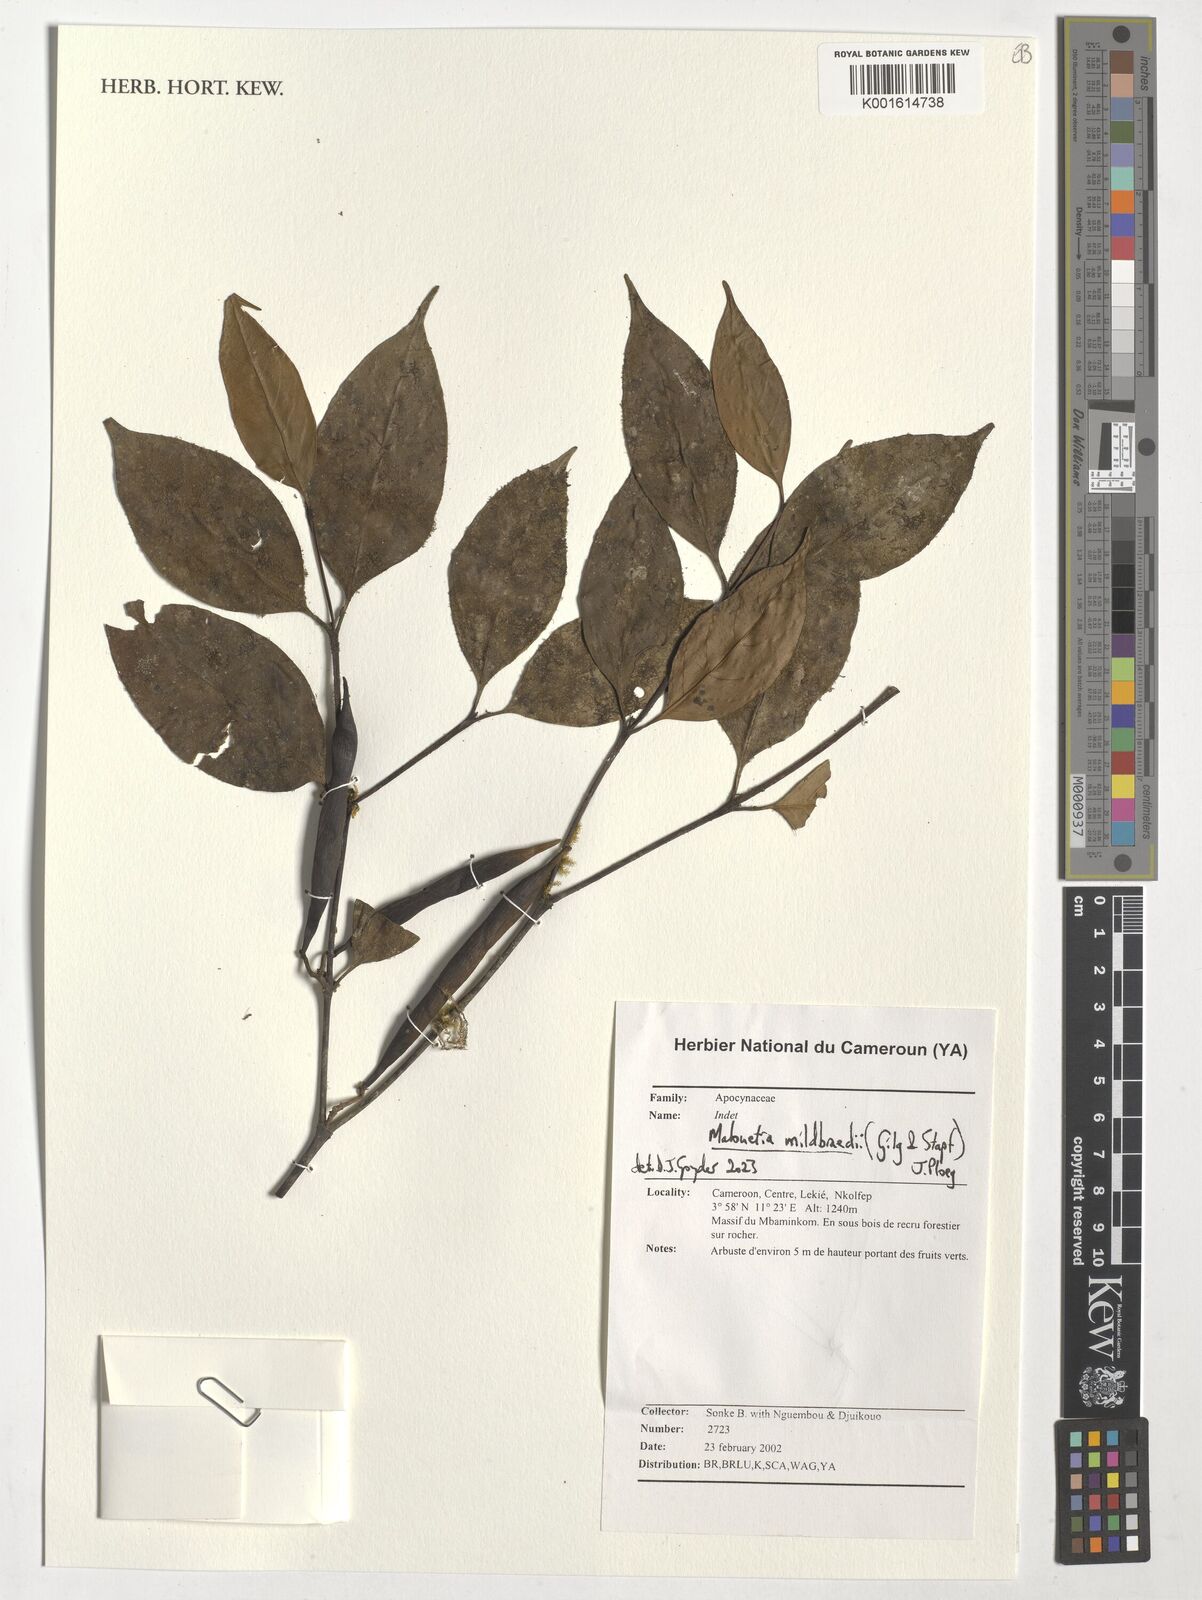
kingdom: Plantae
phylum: Tracheophyta
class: Magnoliopsida
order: Gentianales
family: Apocynaceae
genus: Malouetia
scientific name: Malouetia mildbraedii
